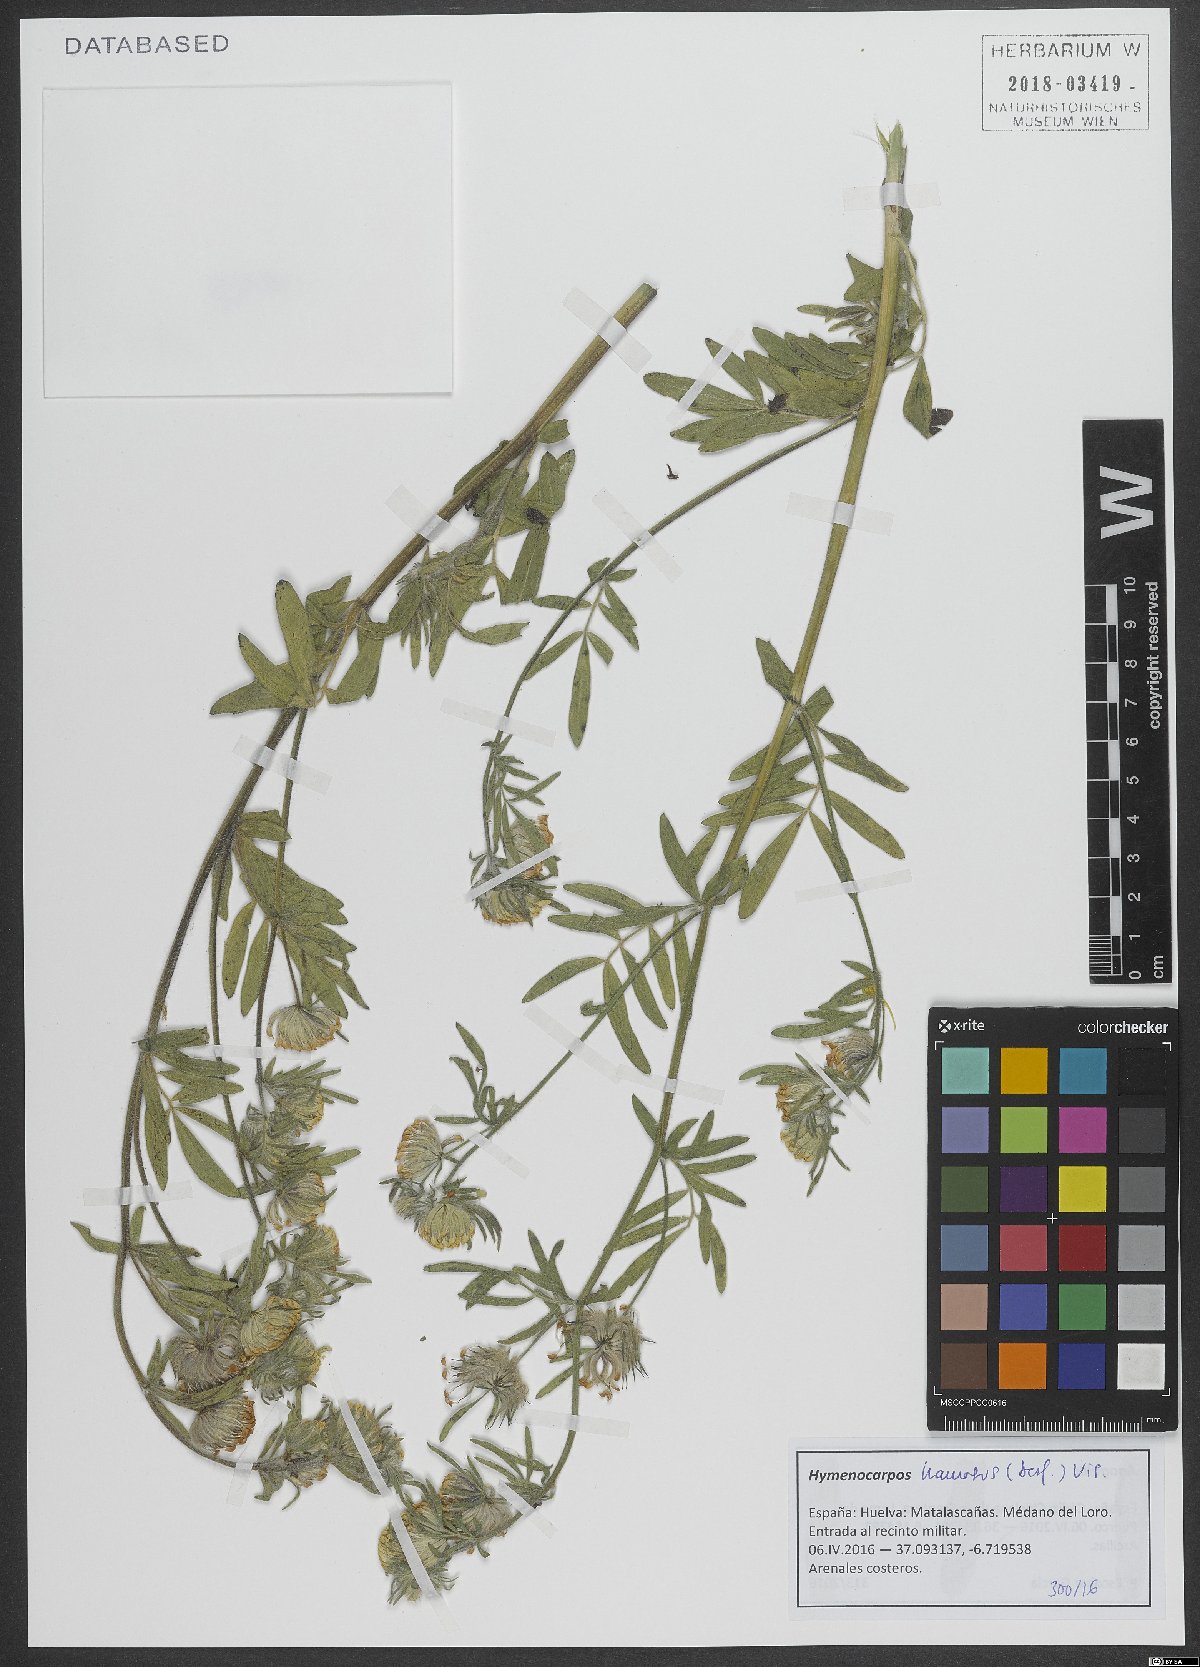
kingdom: Plantae
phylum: Tracheophyta
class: Magnoliopsida
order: Fabales
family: Fabaceae
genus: Anthyllis
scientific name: Anthyllis hamosa
